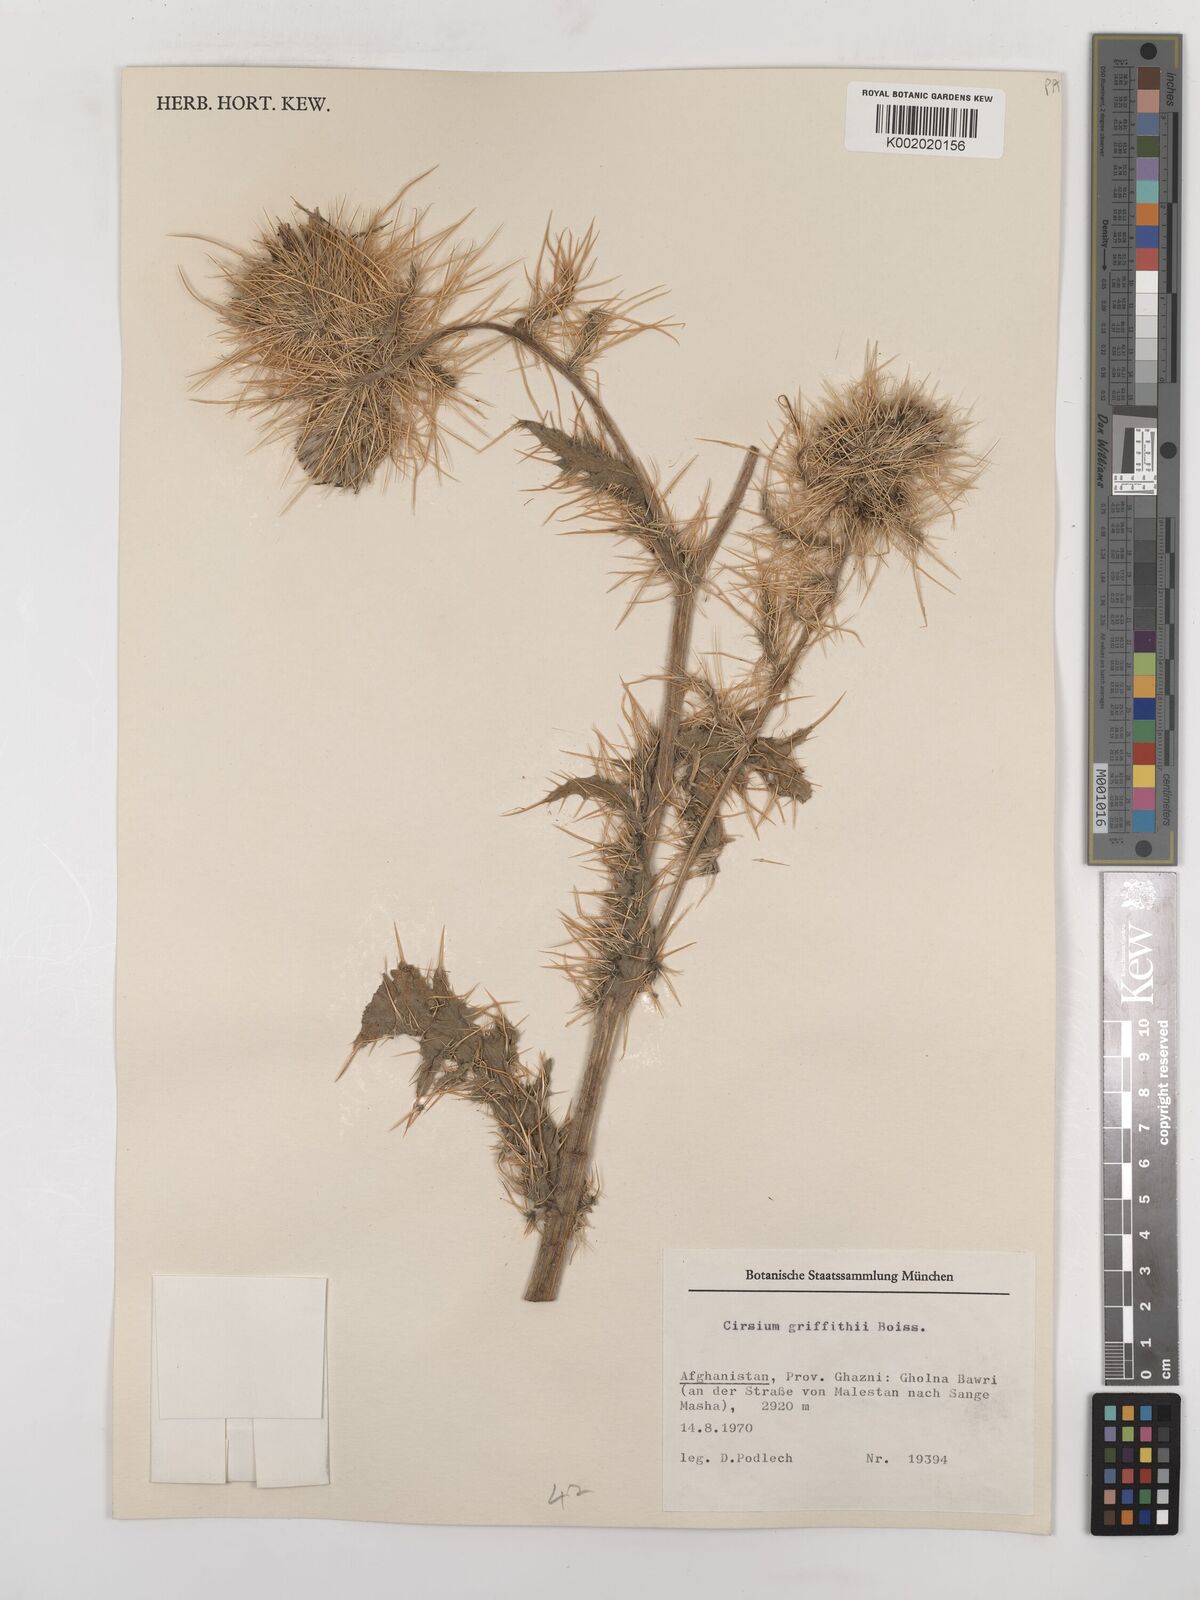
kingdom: Plantae
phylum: Tracheophyta
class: Magnoliopsida
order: Asterales
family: Asteraceae
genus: Lophiolepis
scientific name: Lophiolepis griffithii
